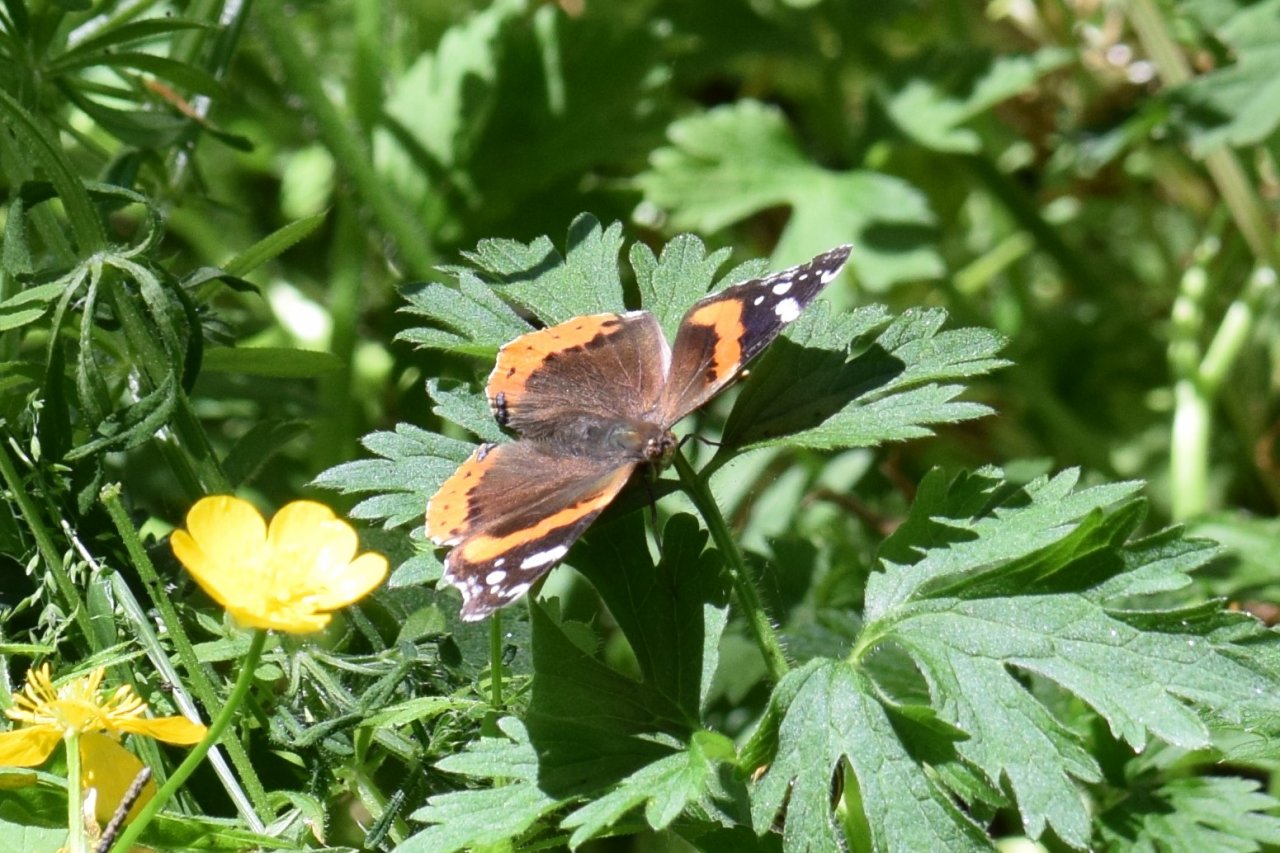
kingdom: Animalia
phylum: Arthropoda
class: Insecta
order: Lepidoptera
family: Nymphalidae
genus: Vanessa
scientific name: Vanessa atalanta
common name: Red Admiral
